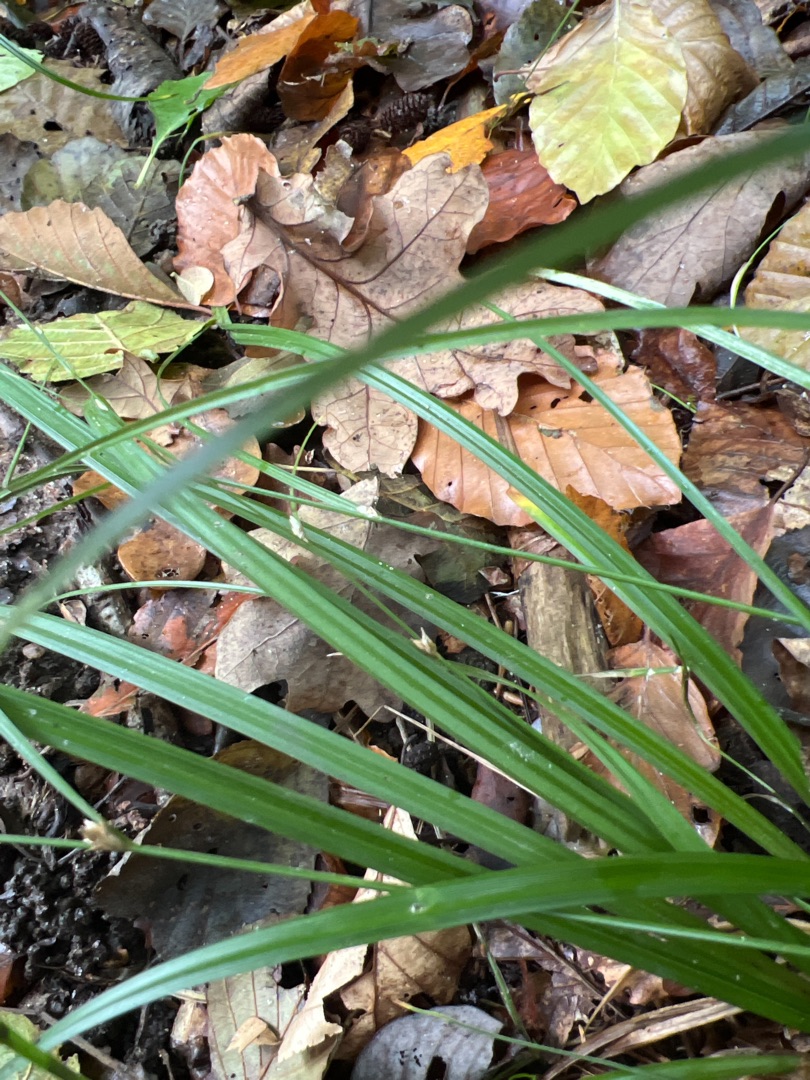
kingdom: Plantae
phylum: Tracheophyta
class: Liliopsida
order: Poales
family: Cyperaceae
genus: Carex
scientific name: Carex remota
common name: Akselblomstret star
